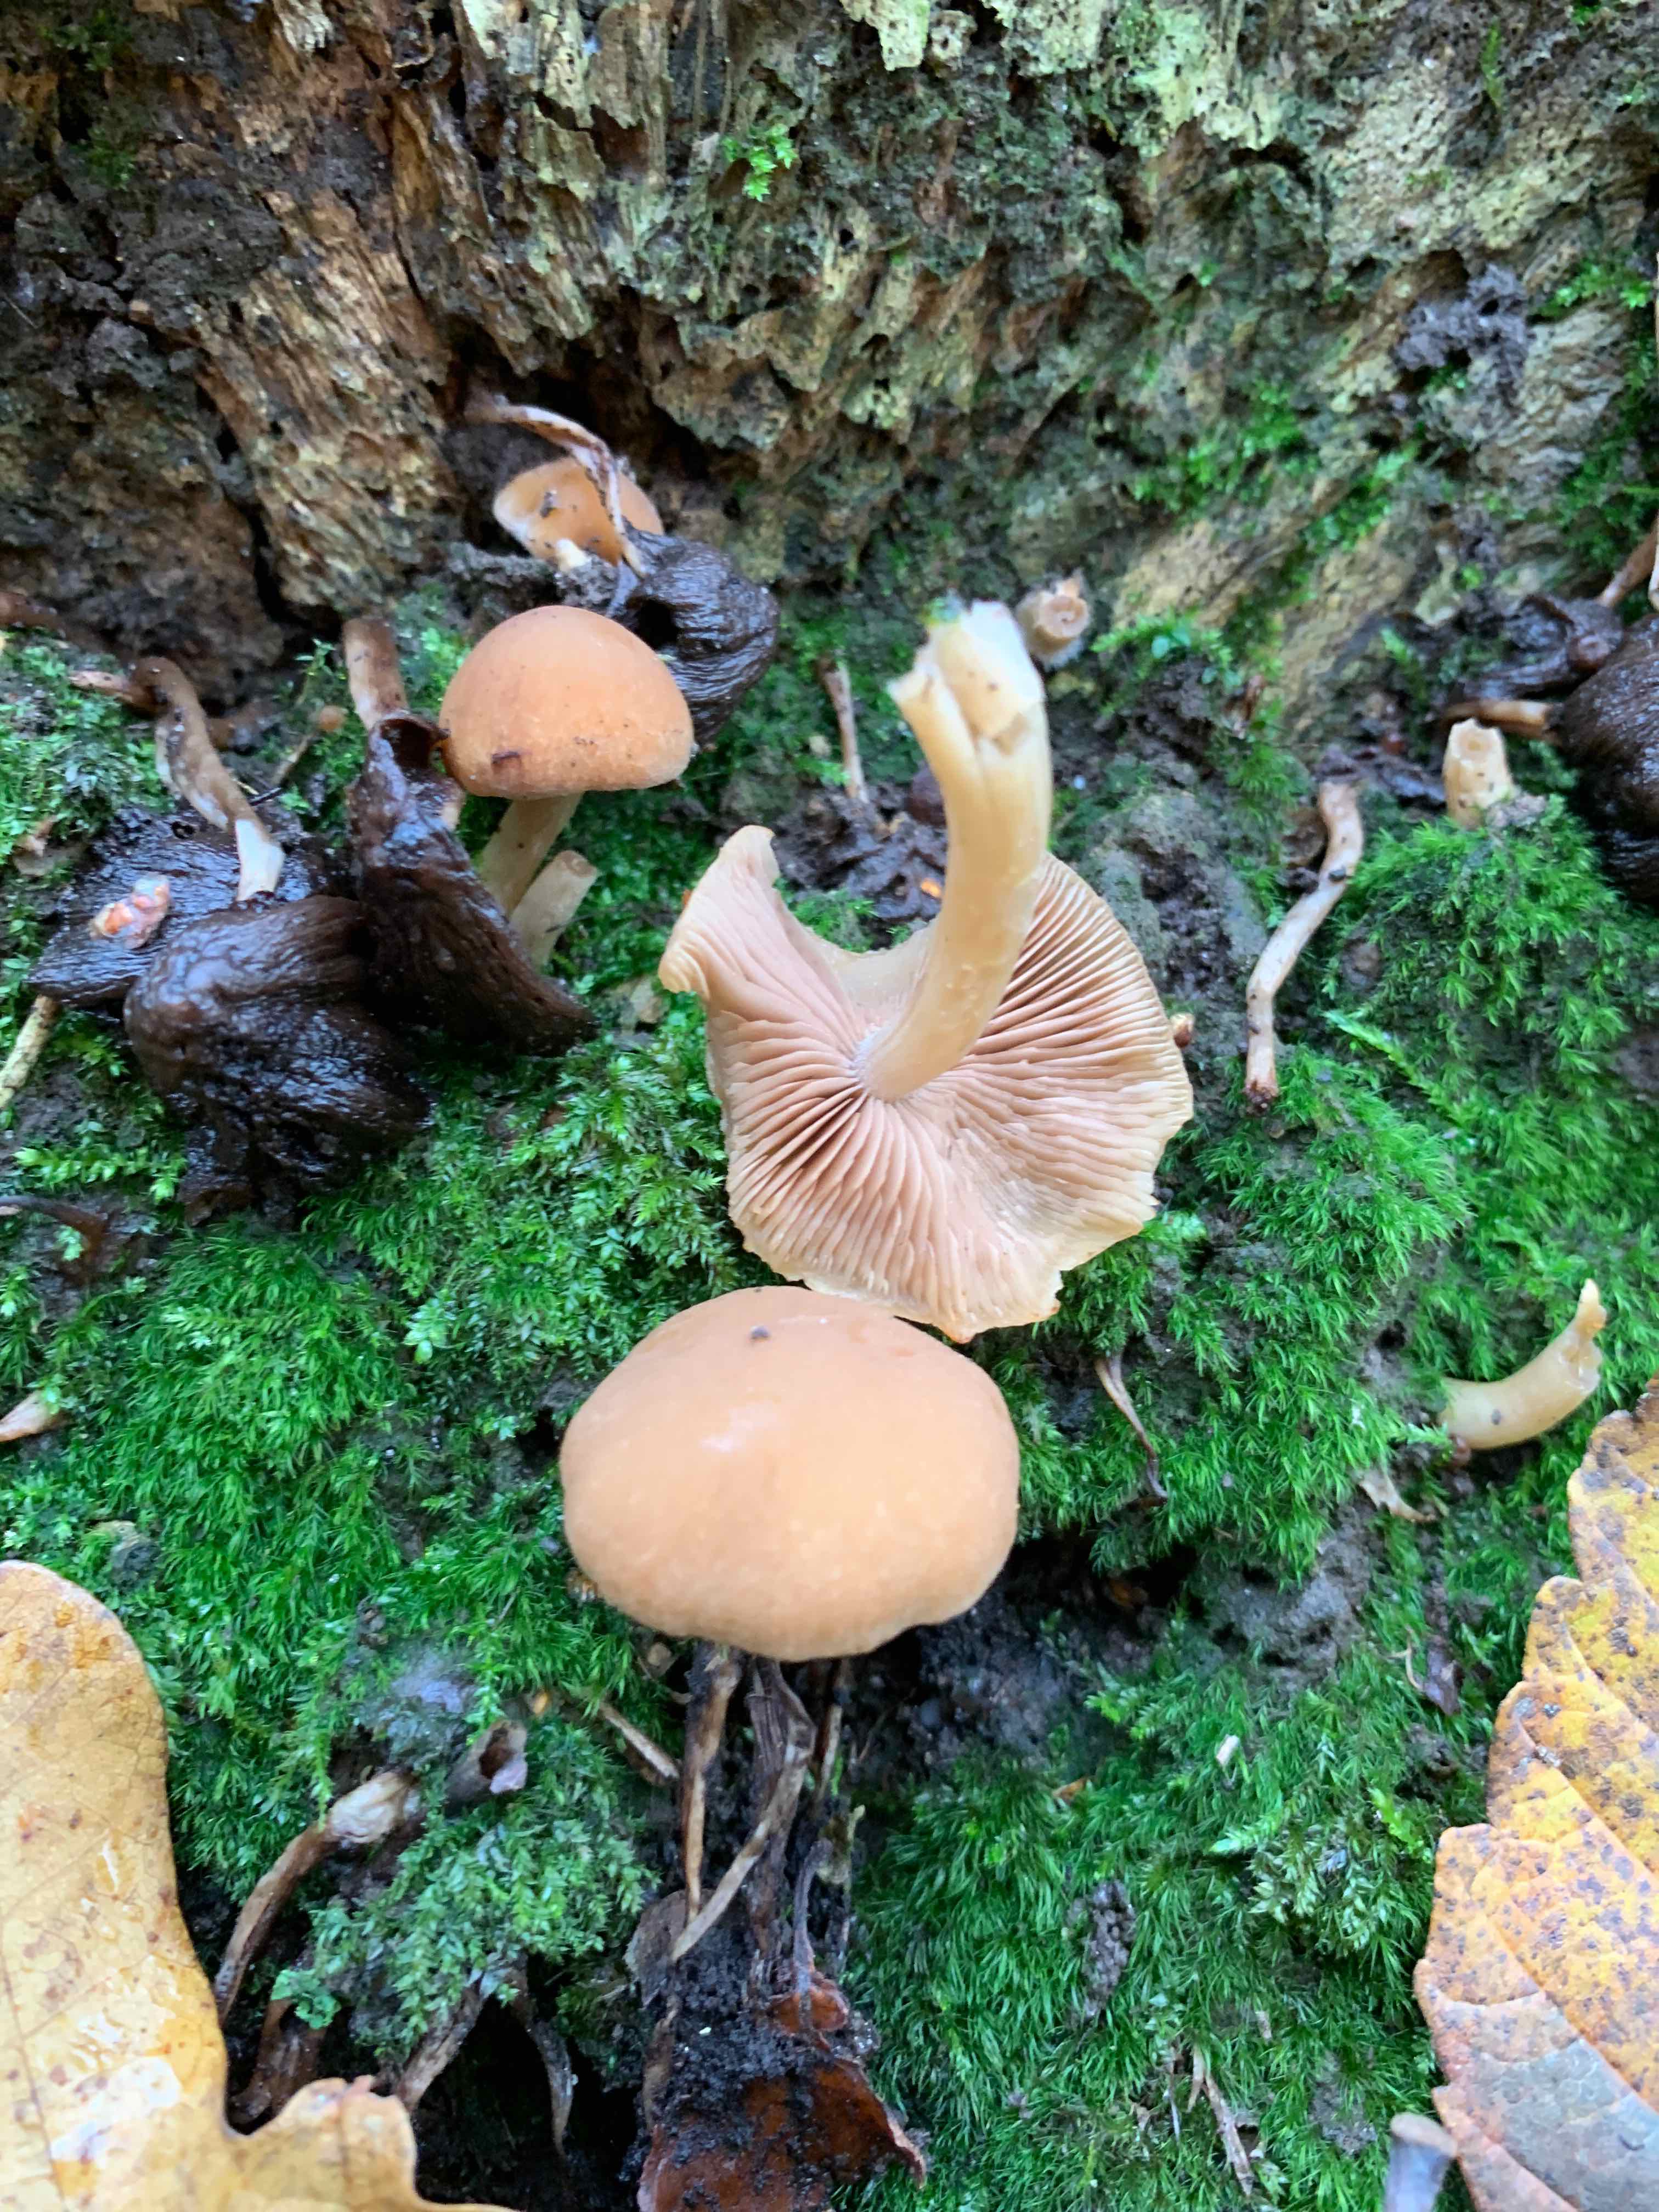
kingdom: Fungi
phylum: Basidiomycota
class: Agaricomycetes
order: Agaricales
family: Psathyrellaceae
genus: Psathyrella
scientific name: Psathyrella piluliformis
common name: lysstokket mørkhat
